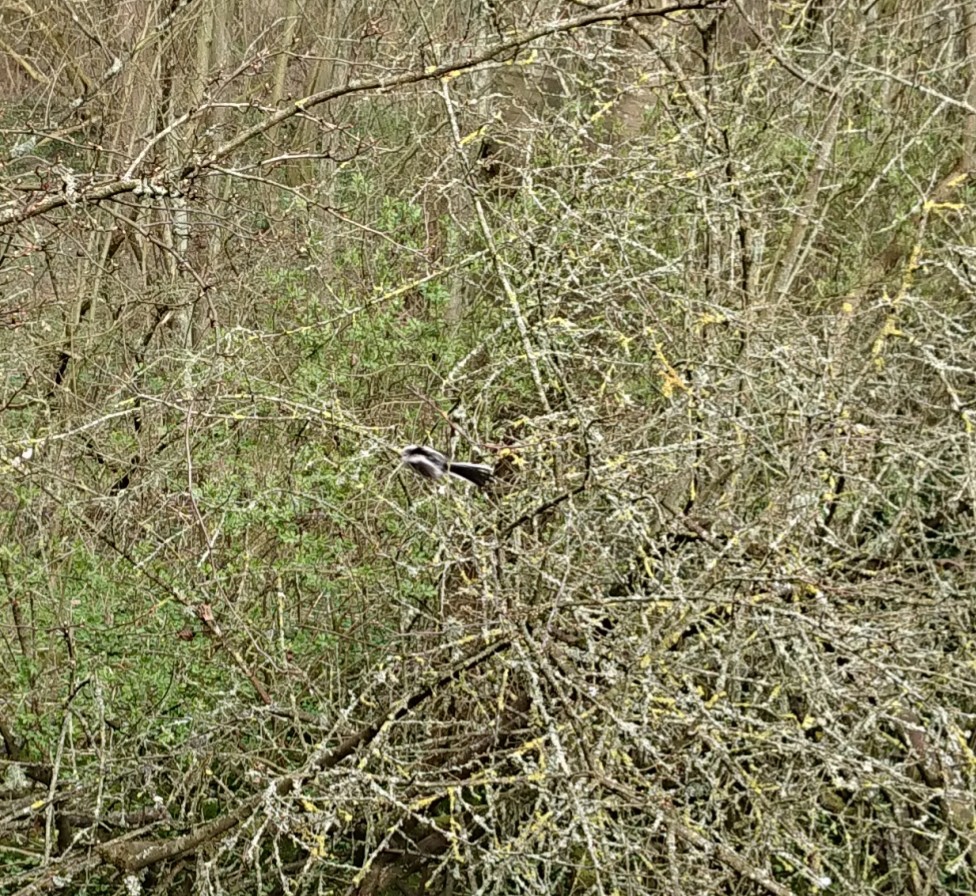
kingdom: Animalia
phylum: Chordata
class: Aves
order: Passeriformes
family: Aegithalidae
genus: Aegithalos
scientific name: Aegithalos caudatus
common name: Halemejse
